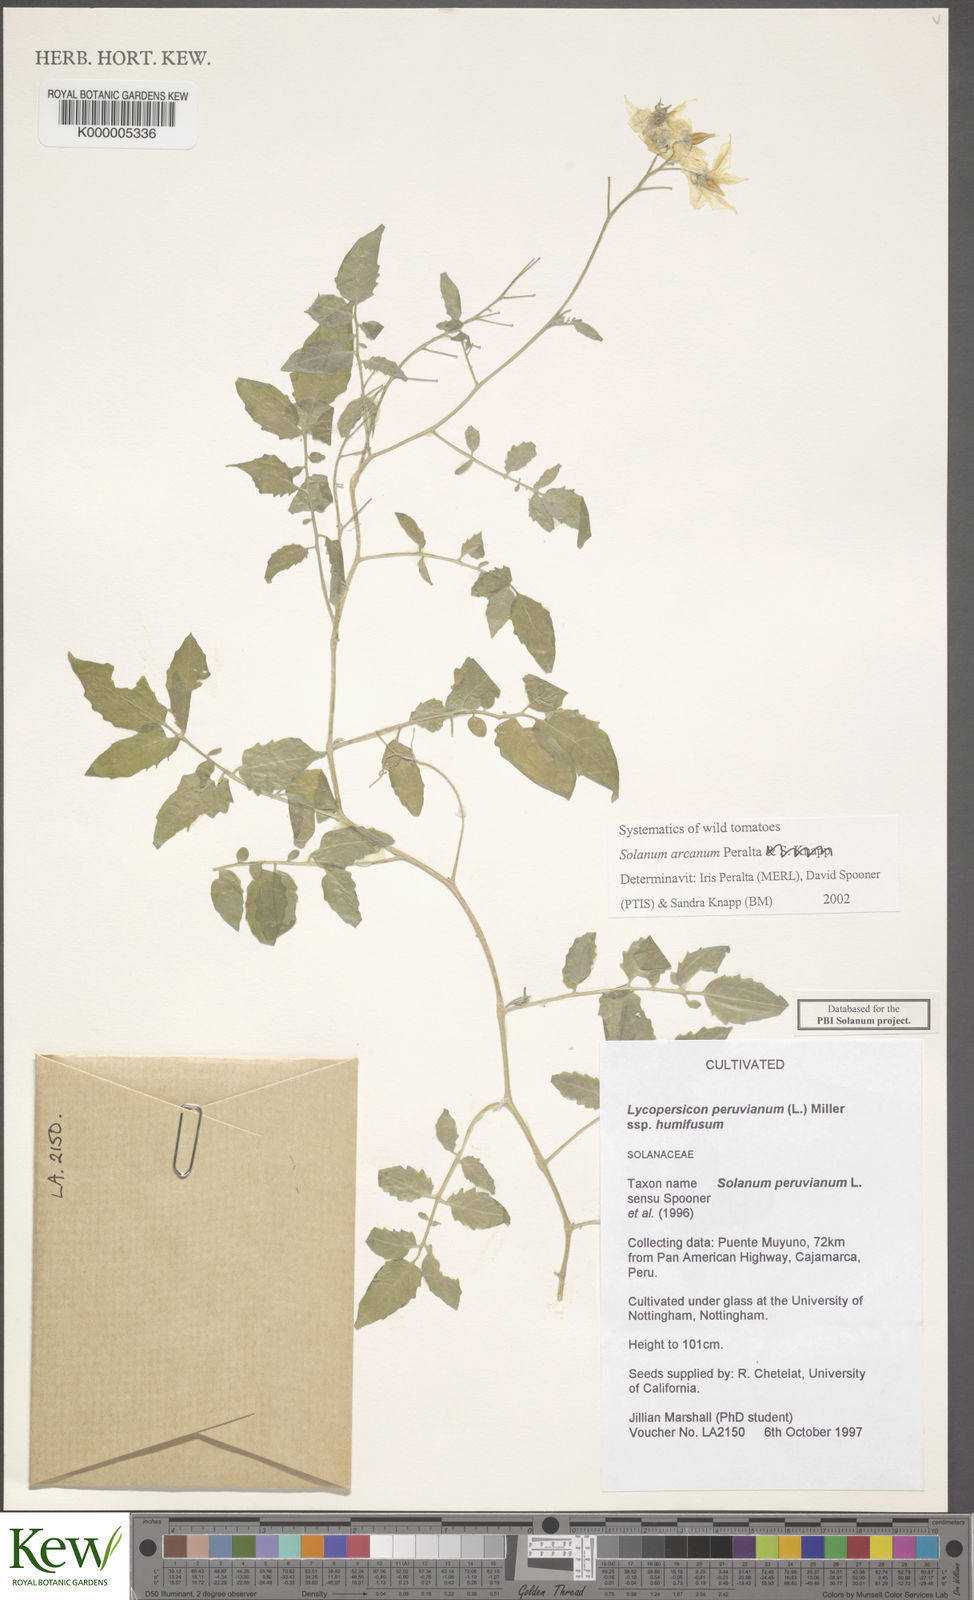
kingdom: Plantae
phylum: Tracheophyta
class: Magnoliopsida
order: Solanales
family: Solanaceae
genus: Solanum
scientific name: Solanum arcanum
